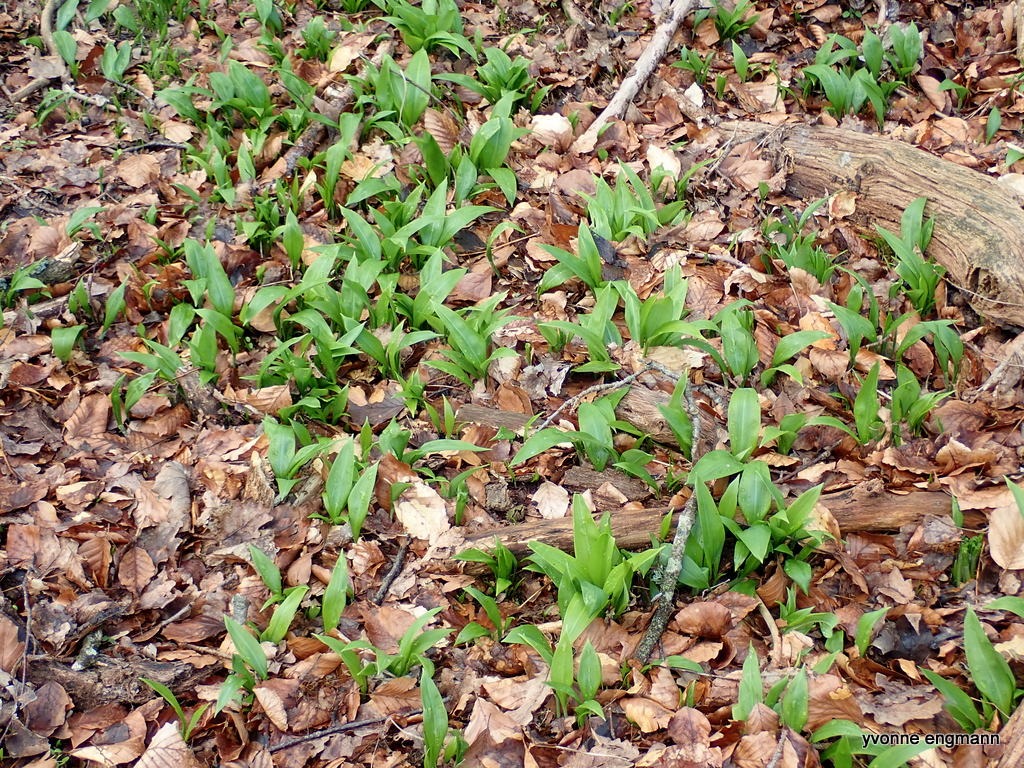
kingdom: Plantae
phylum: Tracheophyta
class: Liliopsida
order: Asparagales
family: Amaryllidaceae
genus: Allium
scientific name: Allium ursinum
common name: Rams-løg
